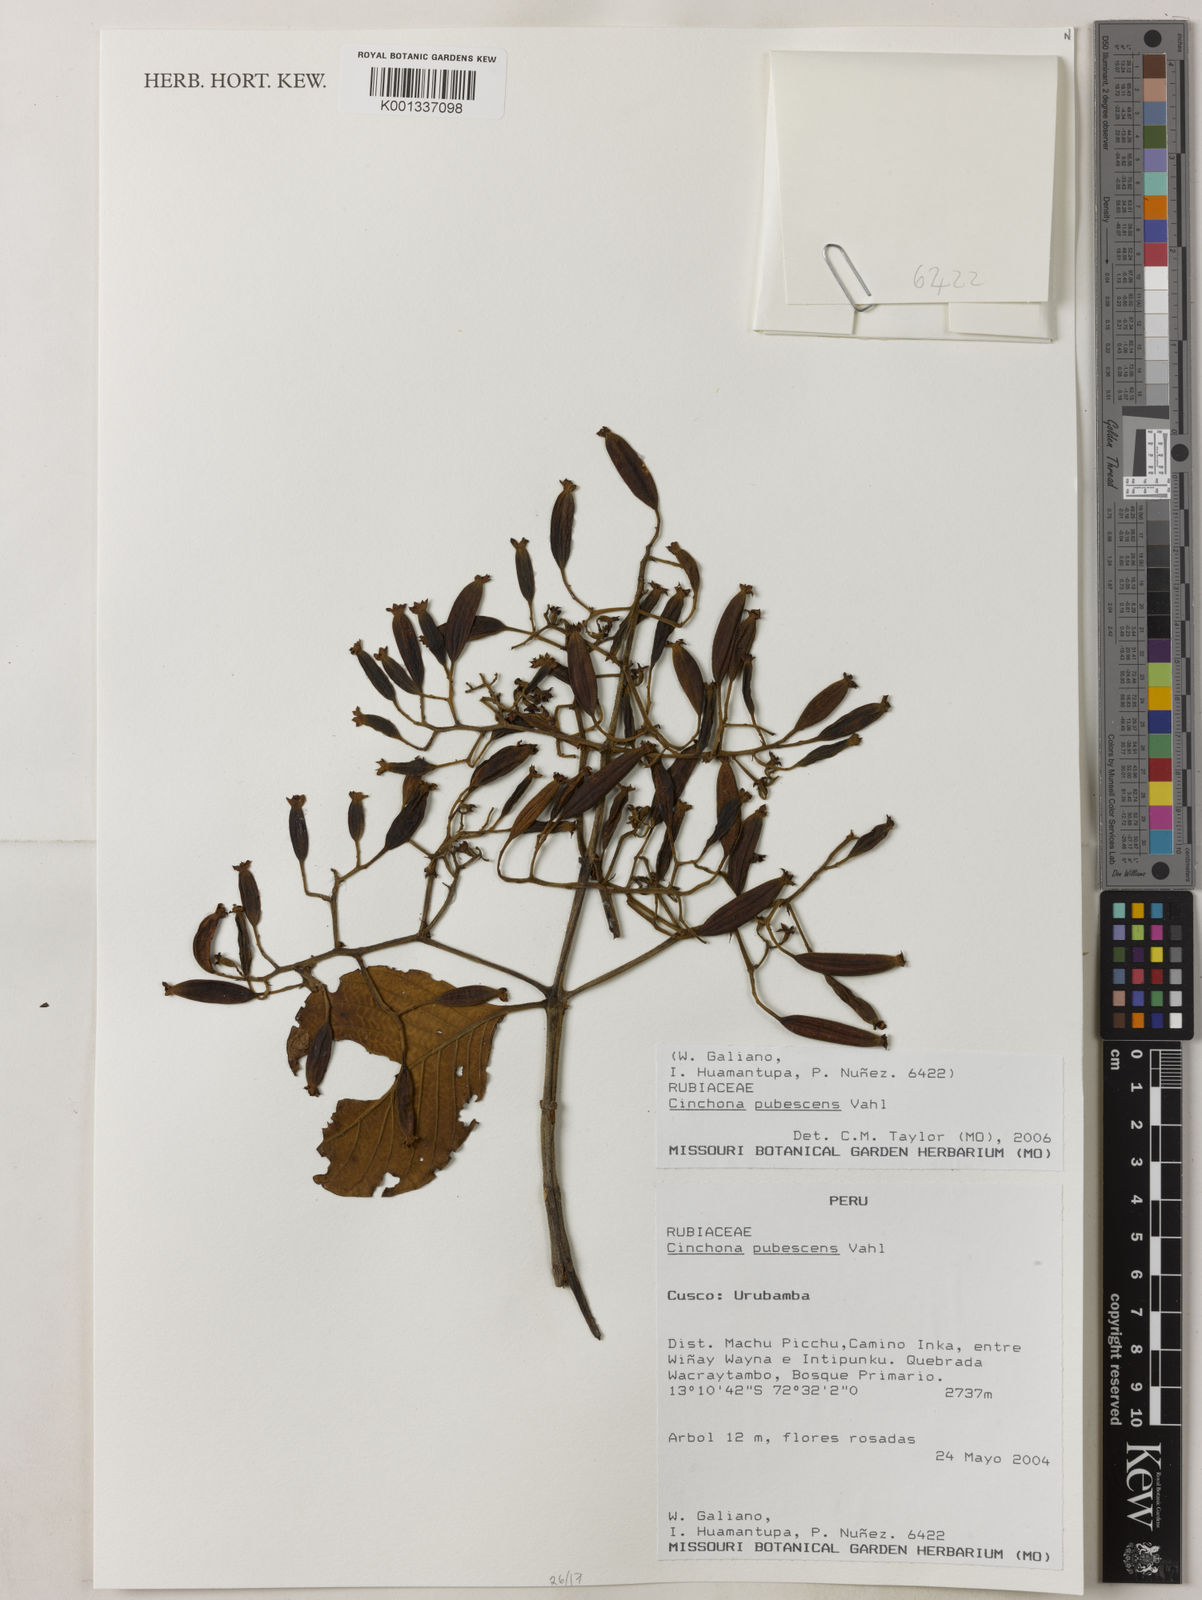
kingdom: Plantae
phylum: Tracheophyta
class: Magnoliopsida
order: Gentianales
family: Rubiaceae
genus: Cinchona
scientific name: Cinchona pubescens
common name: Quinine
